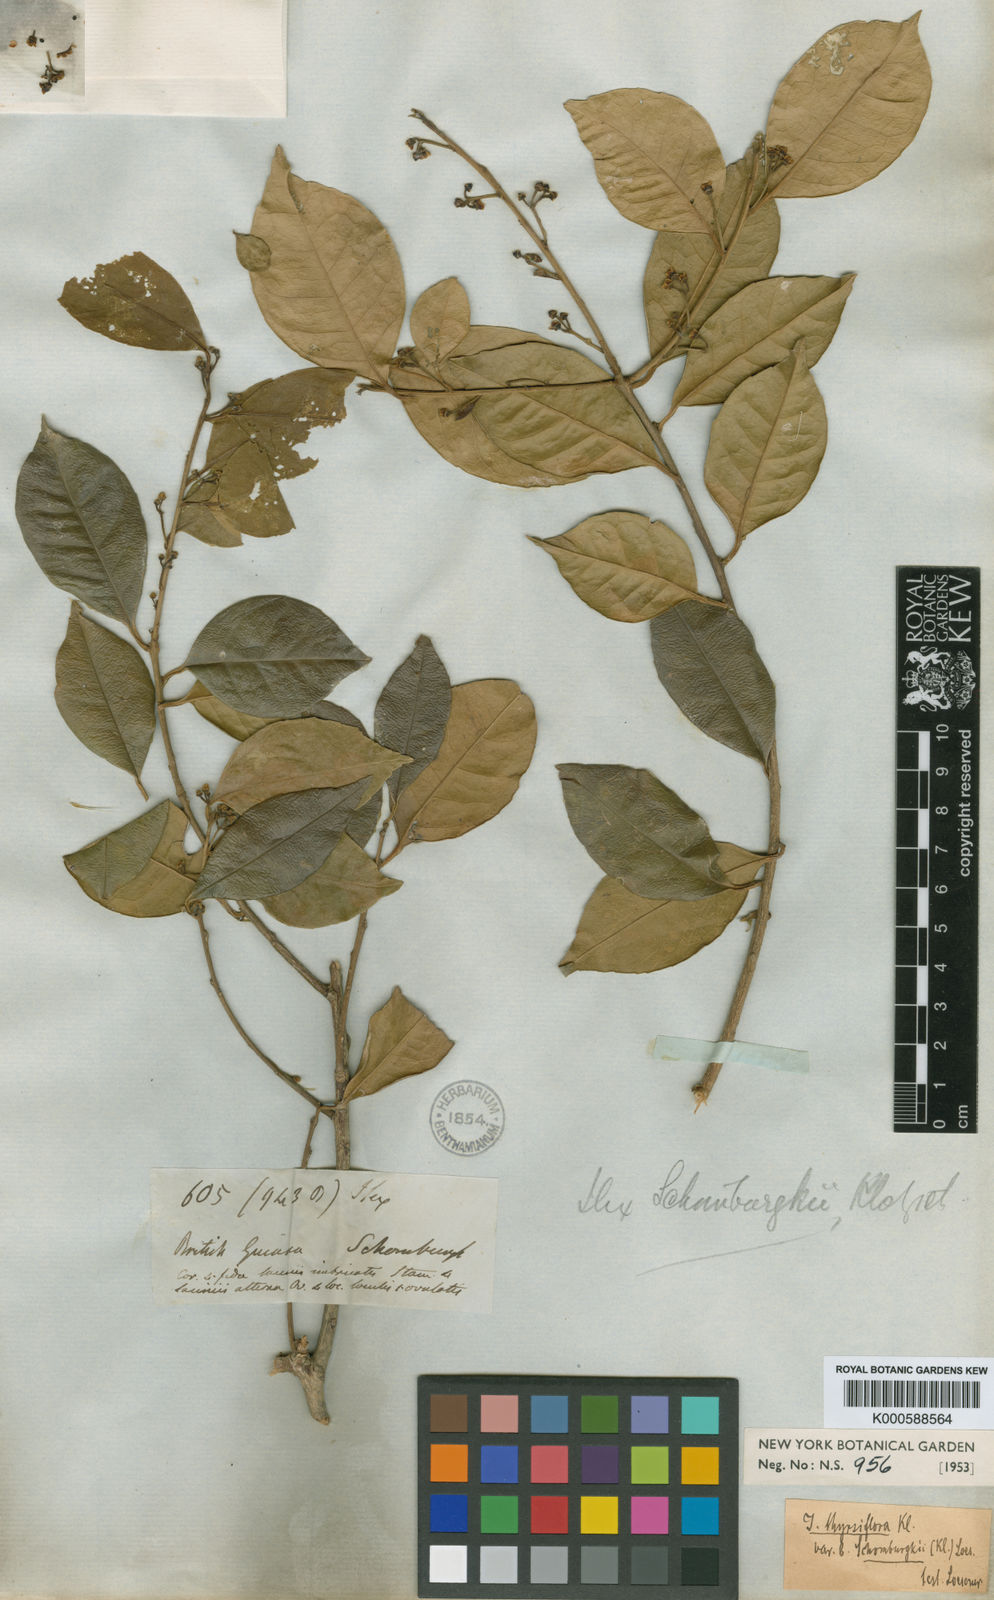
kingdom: Plantae
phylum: Tracheophyta
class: Magnoliopsida
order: Aquifoliales
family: Aquifoliaceae
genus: Ilex
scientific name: Ilex thyrsiflora
